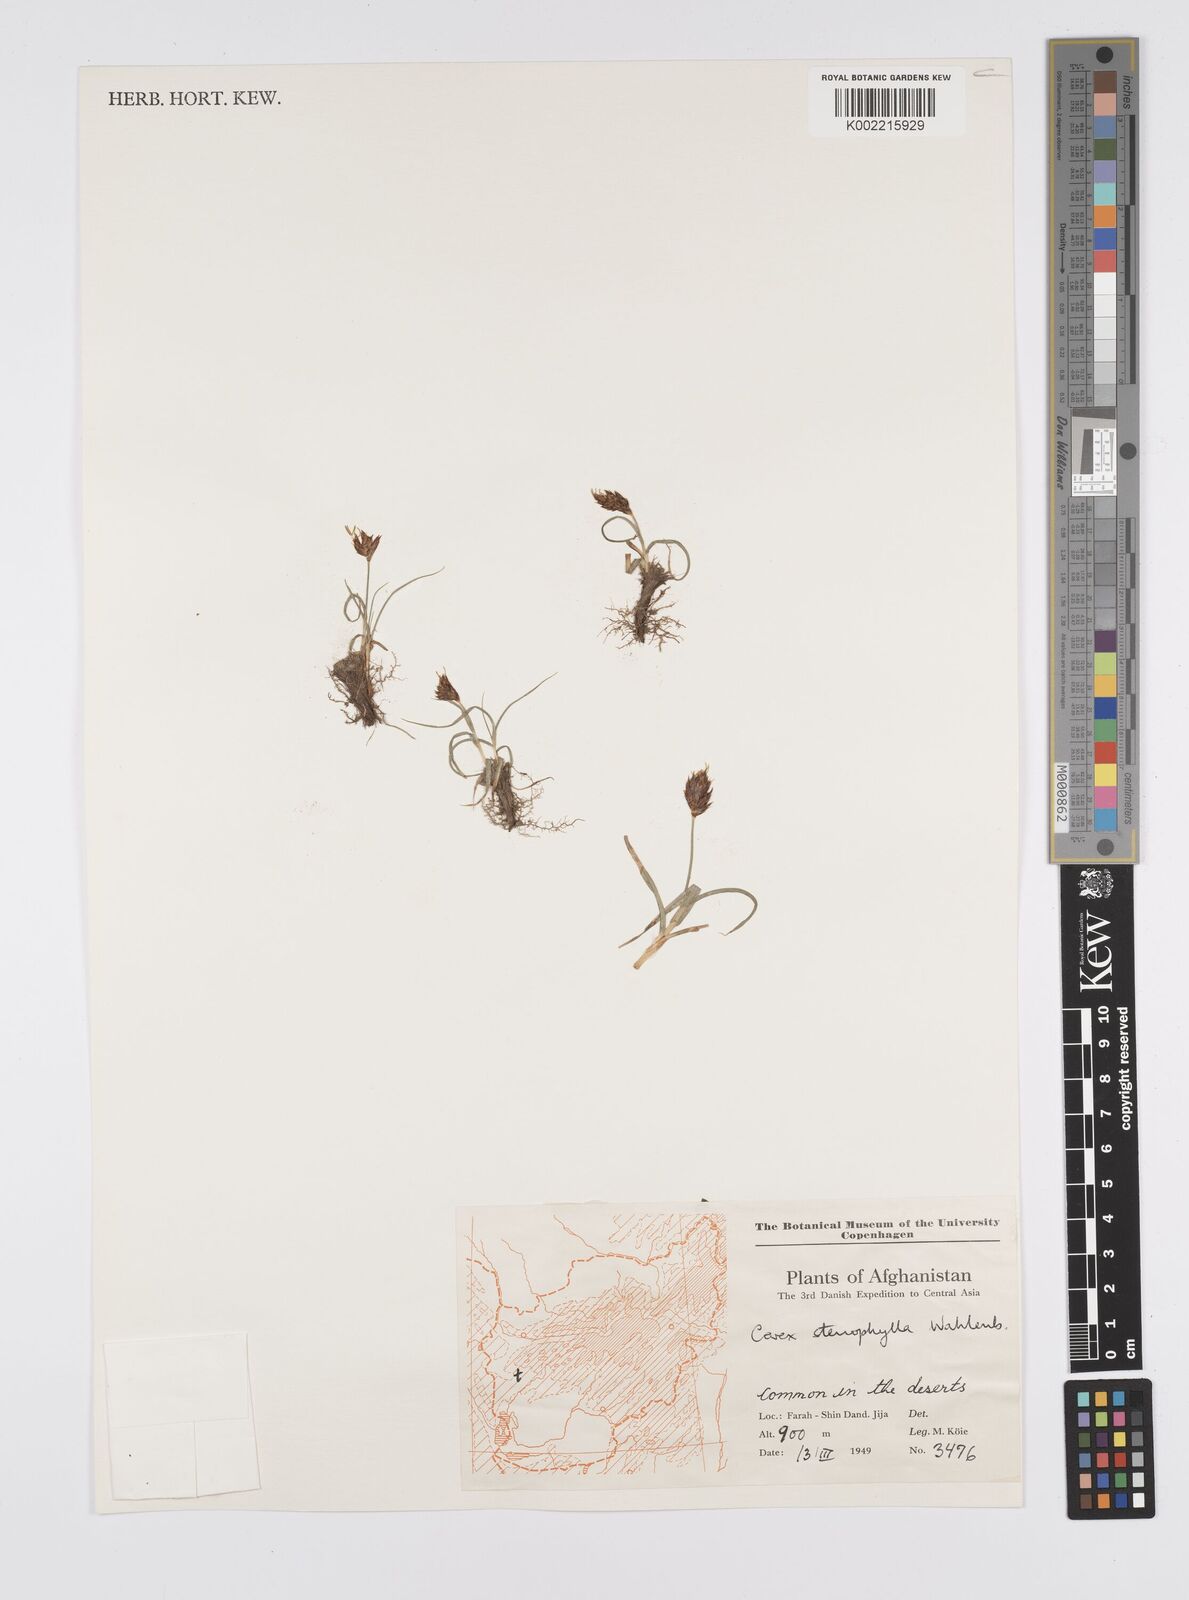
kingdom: Plantae
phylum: Tracheophyta
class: Liliopsida
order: Poales
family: Cyperaceae
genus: Carex
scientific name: Carex stenophylla
